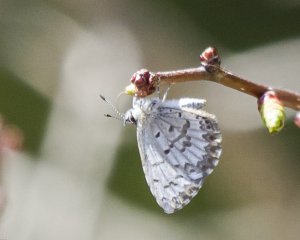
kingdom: Animalia
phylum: Arthropoda
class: Insecta
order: Lepidoptera
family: Lycaenidae
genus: Celastrina
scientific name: Celastrina lucia
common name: Northern Spring Azure
